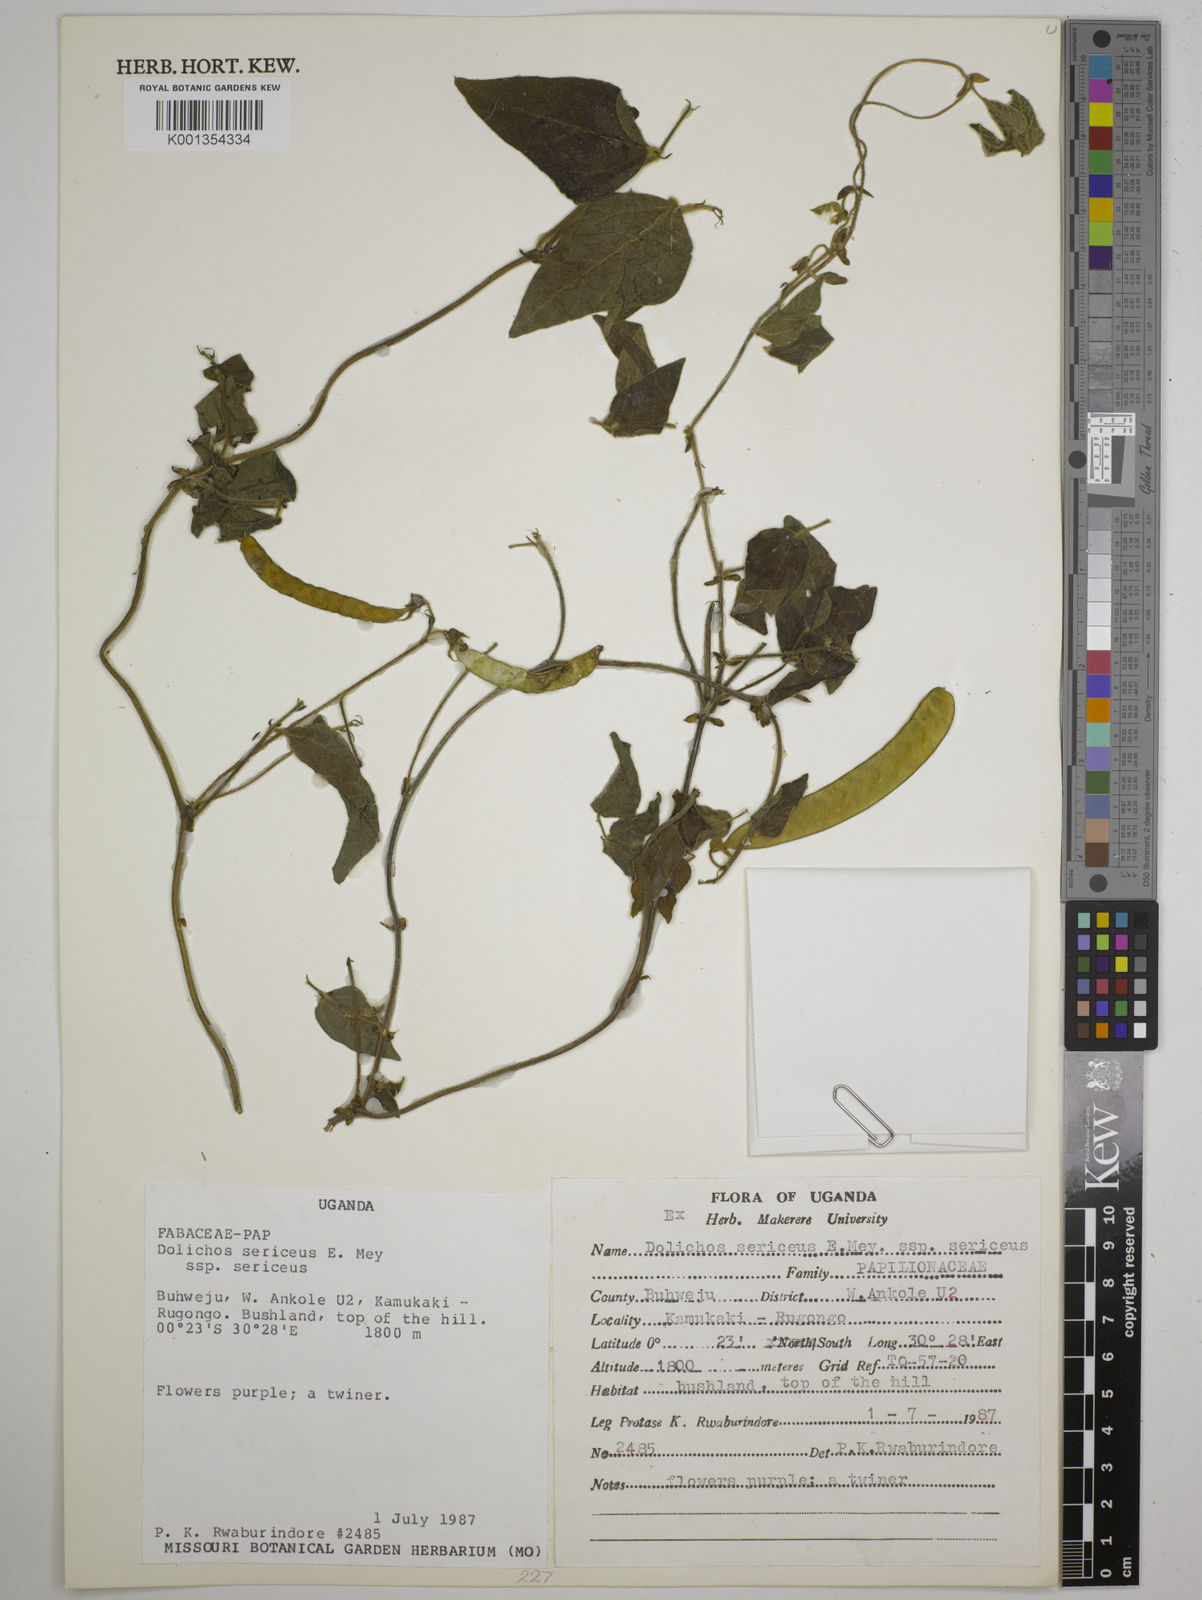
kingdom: Plantae
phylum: Tracheophyta
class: Magnoliopsida
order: Fabales
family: Fabaceae
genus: Dolichos
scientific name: Dolichos
